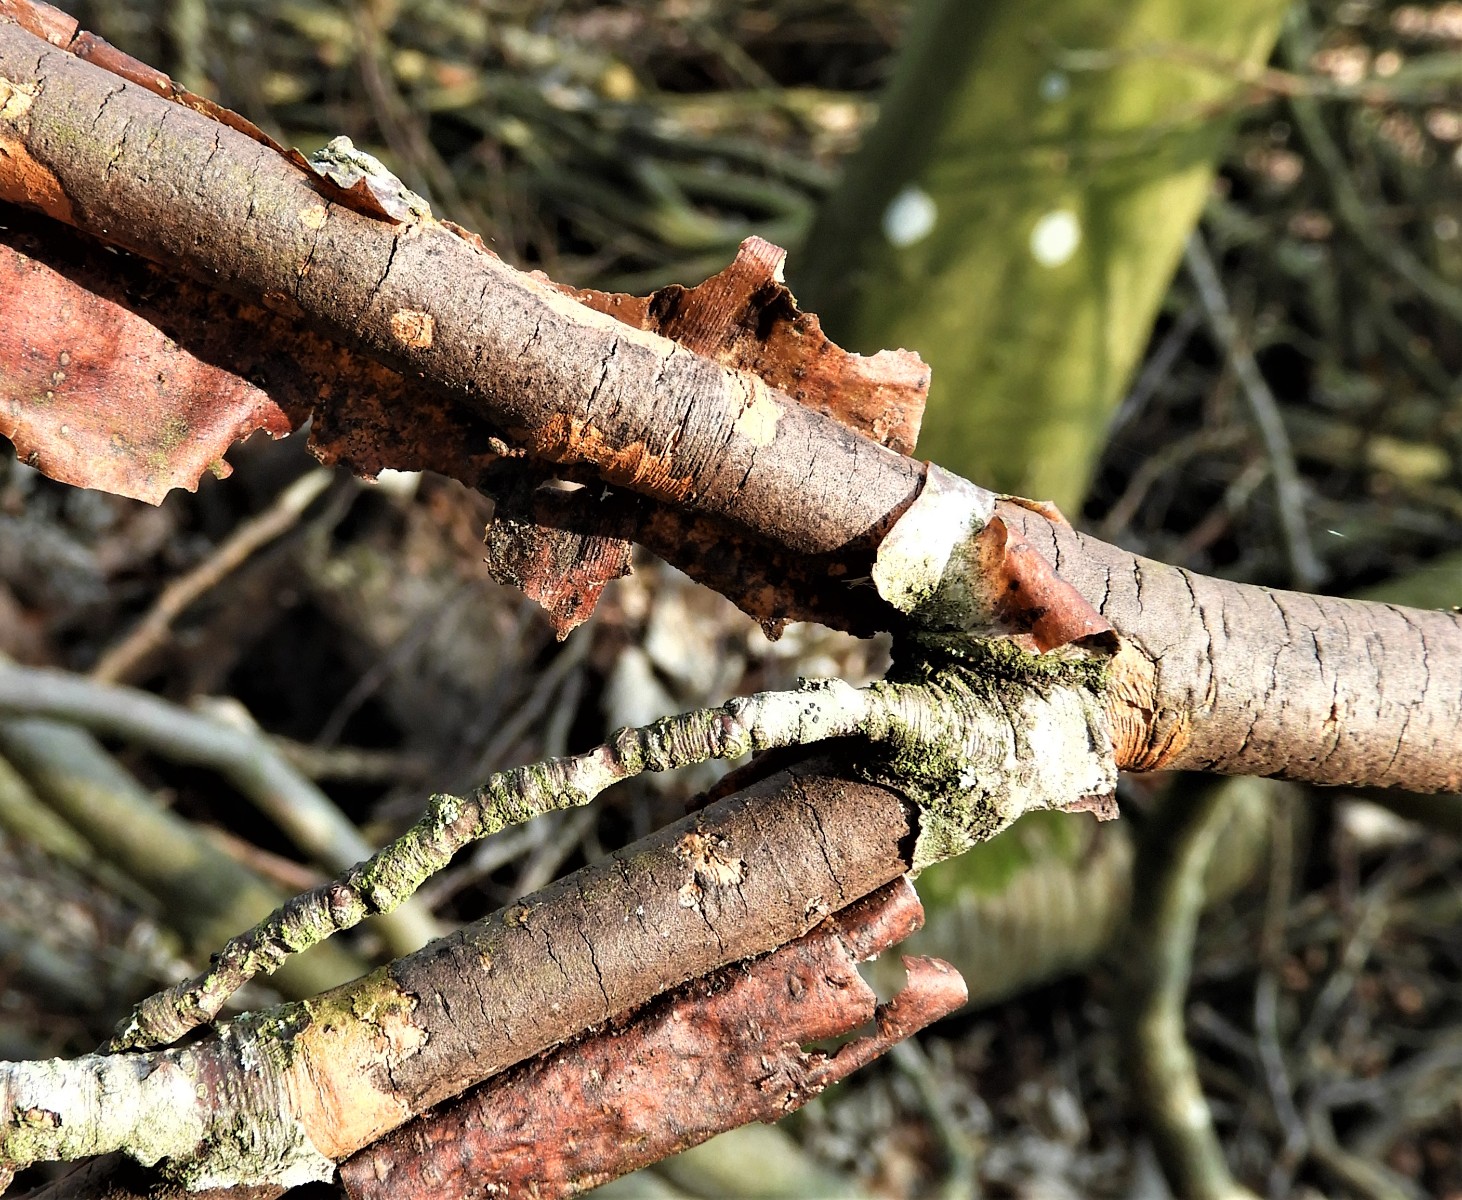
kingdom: Fungi
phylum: Ascomycota
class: Sordariomycetes
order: Xylariales
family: Diatrypaceae
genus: Diatrype
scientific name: Diatrype decorticata
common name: barksprænger-kulskorpe
